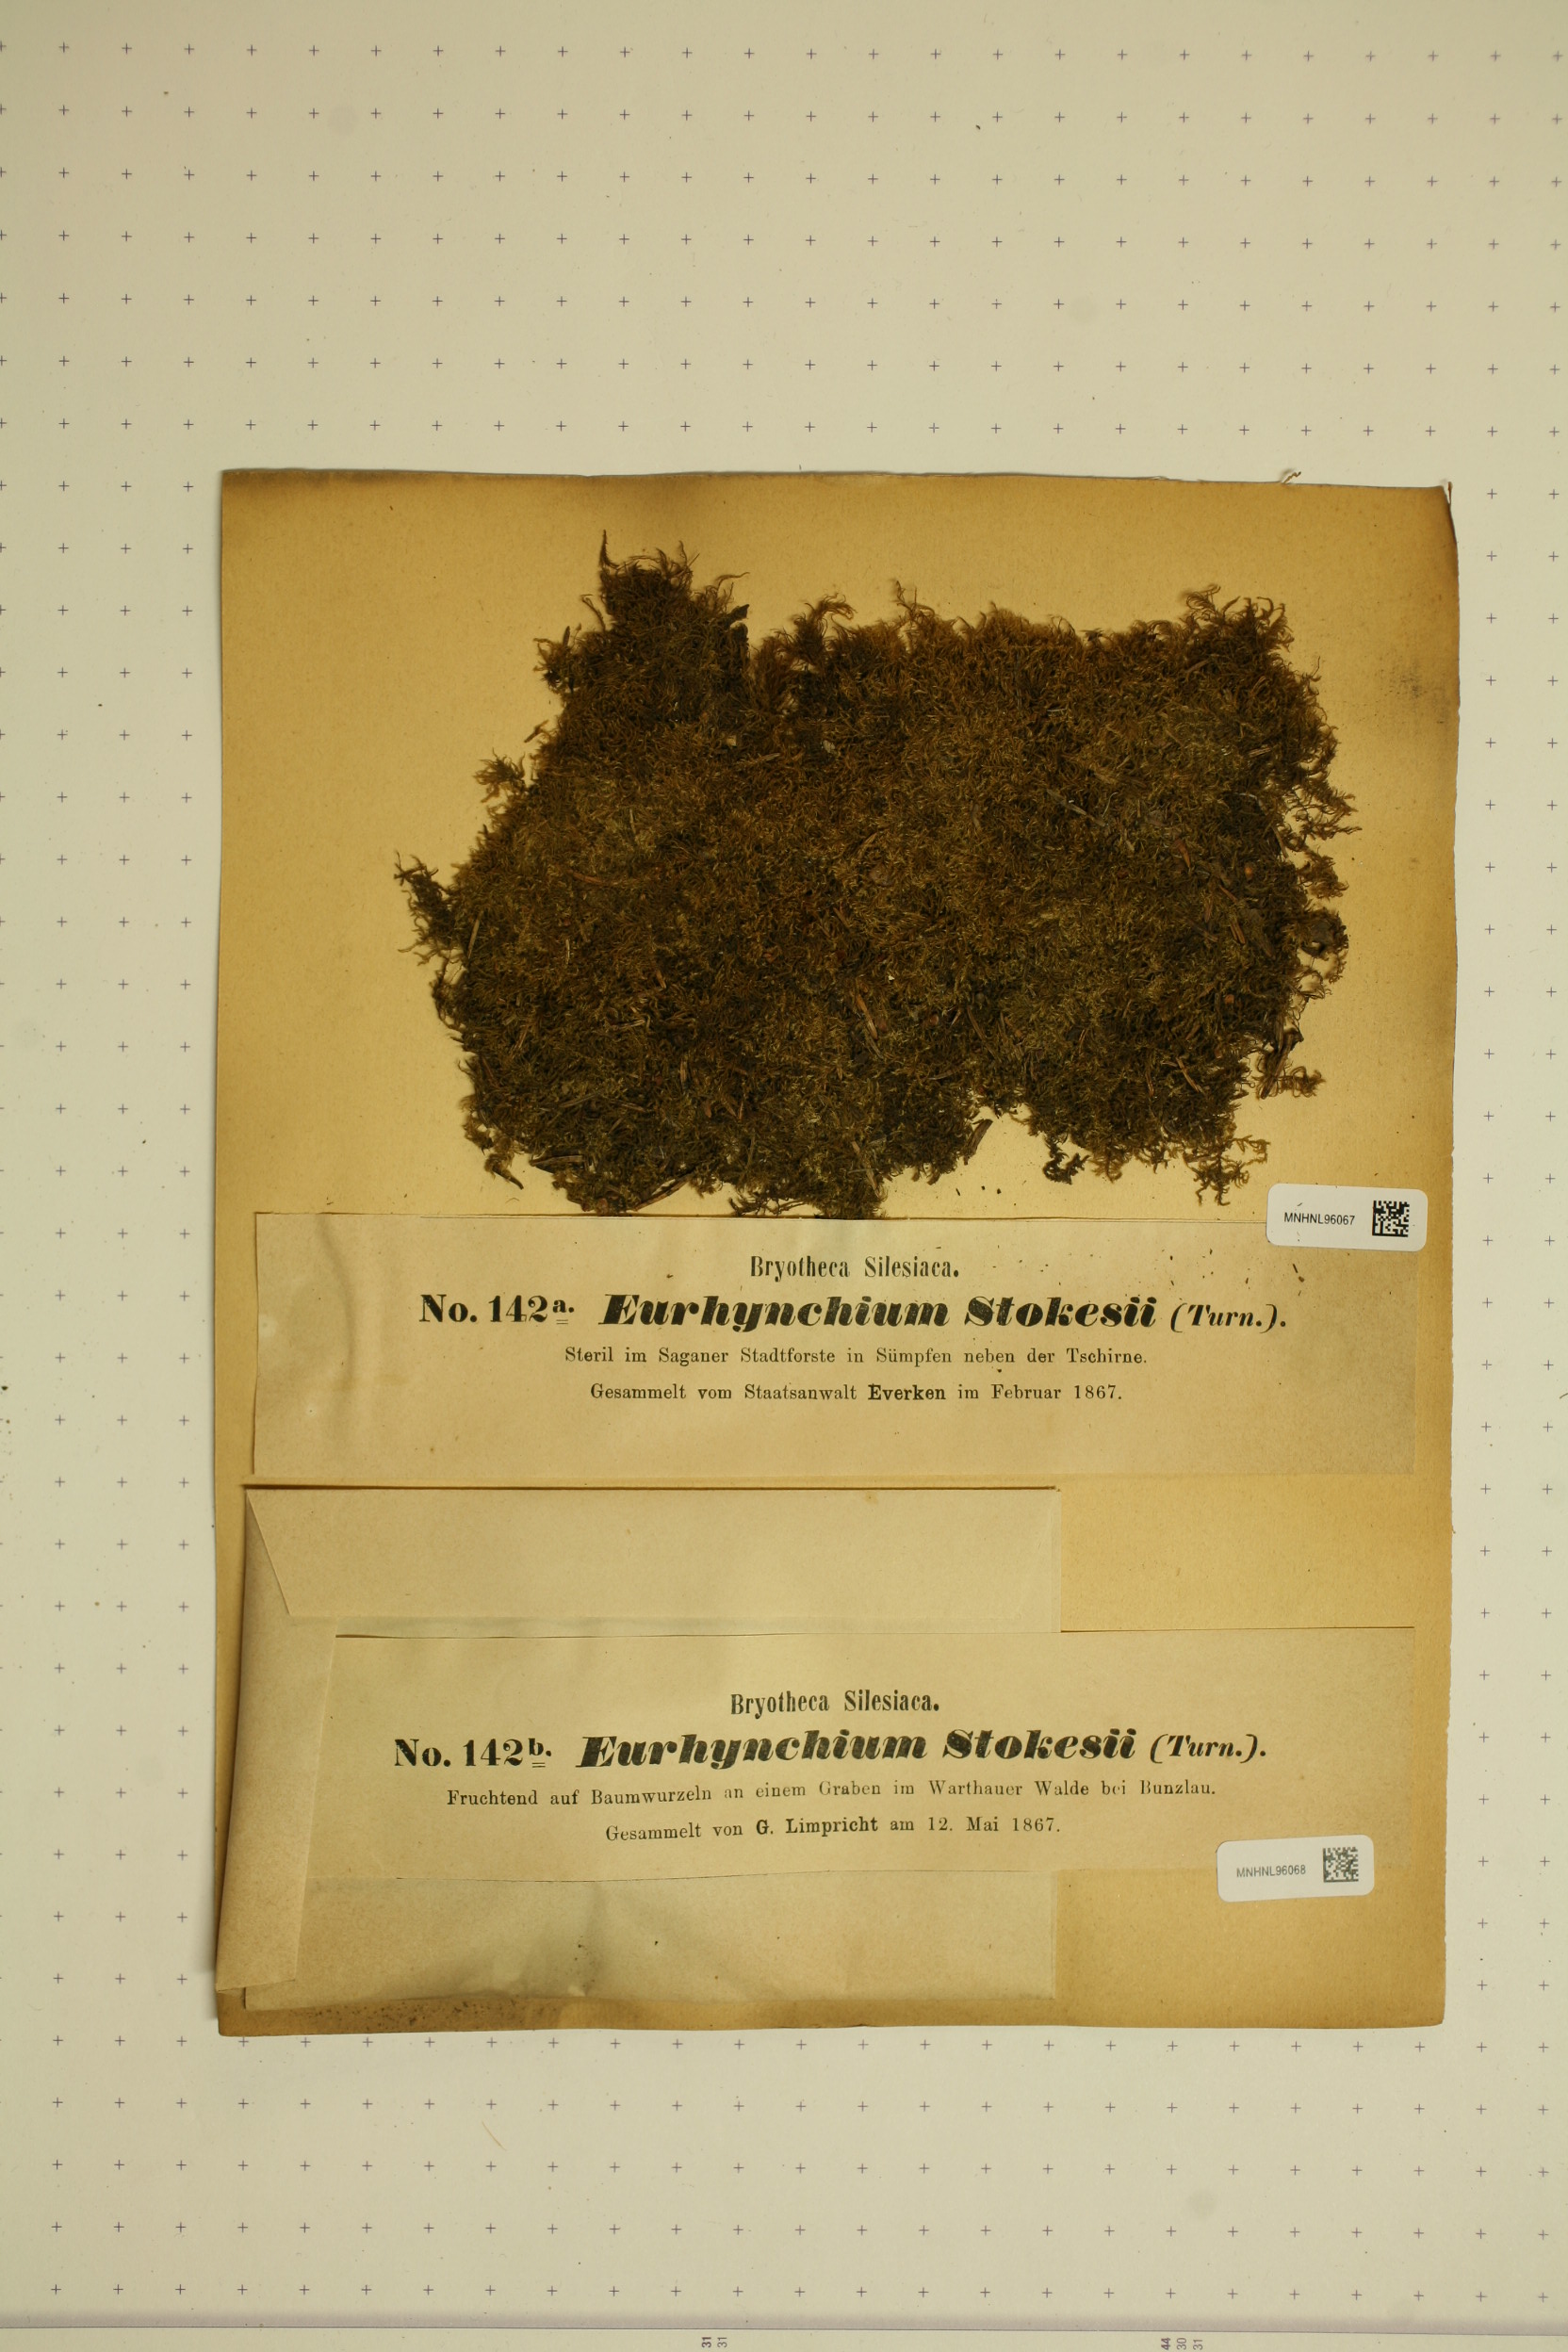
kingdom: Plantae
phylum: Bryophyta
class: Bryopsida
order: Hypnales
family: Brachytheciaceae
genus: Kindbergia
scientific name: Kindbergia praelonga
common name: Slender beaked moss
